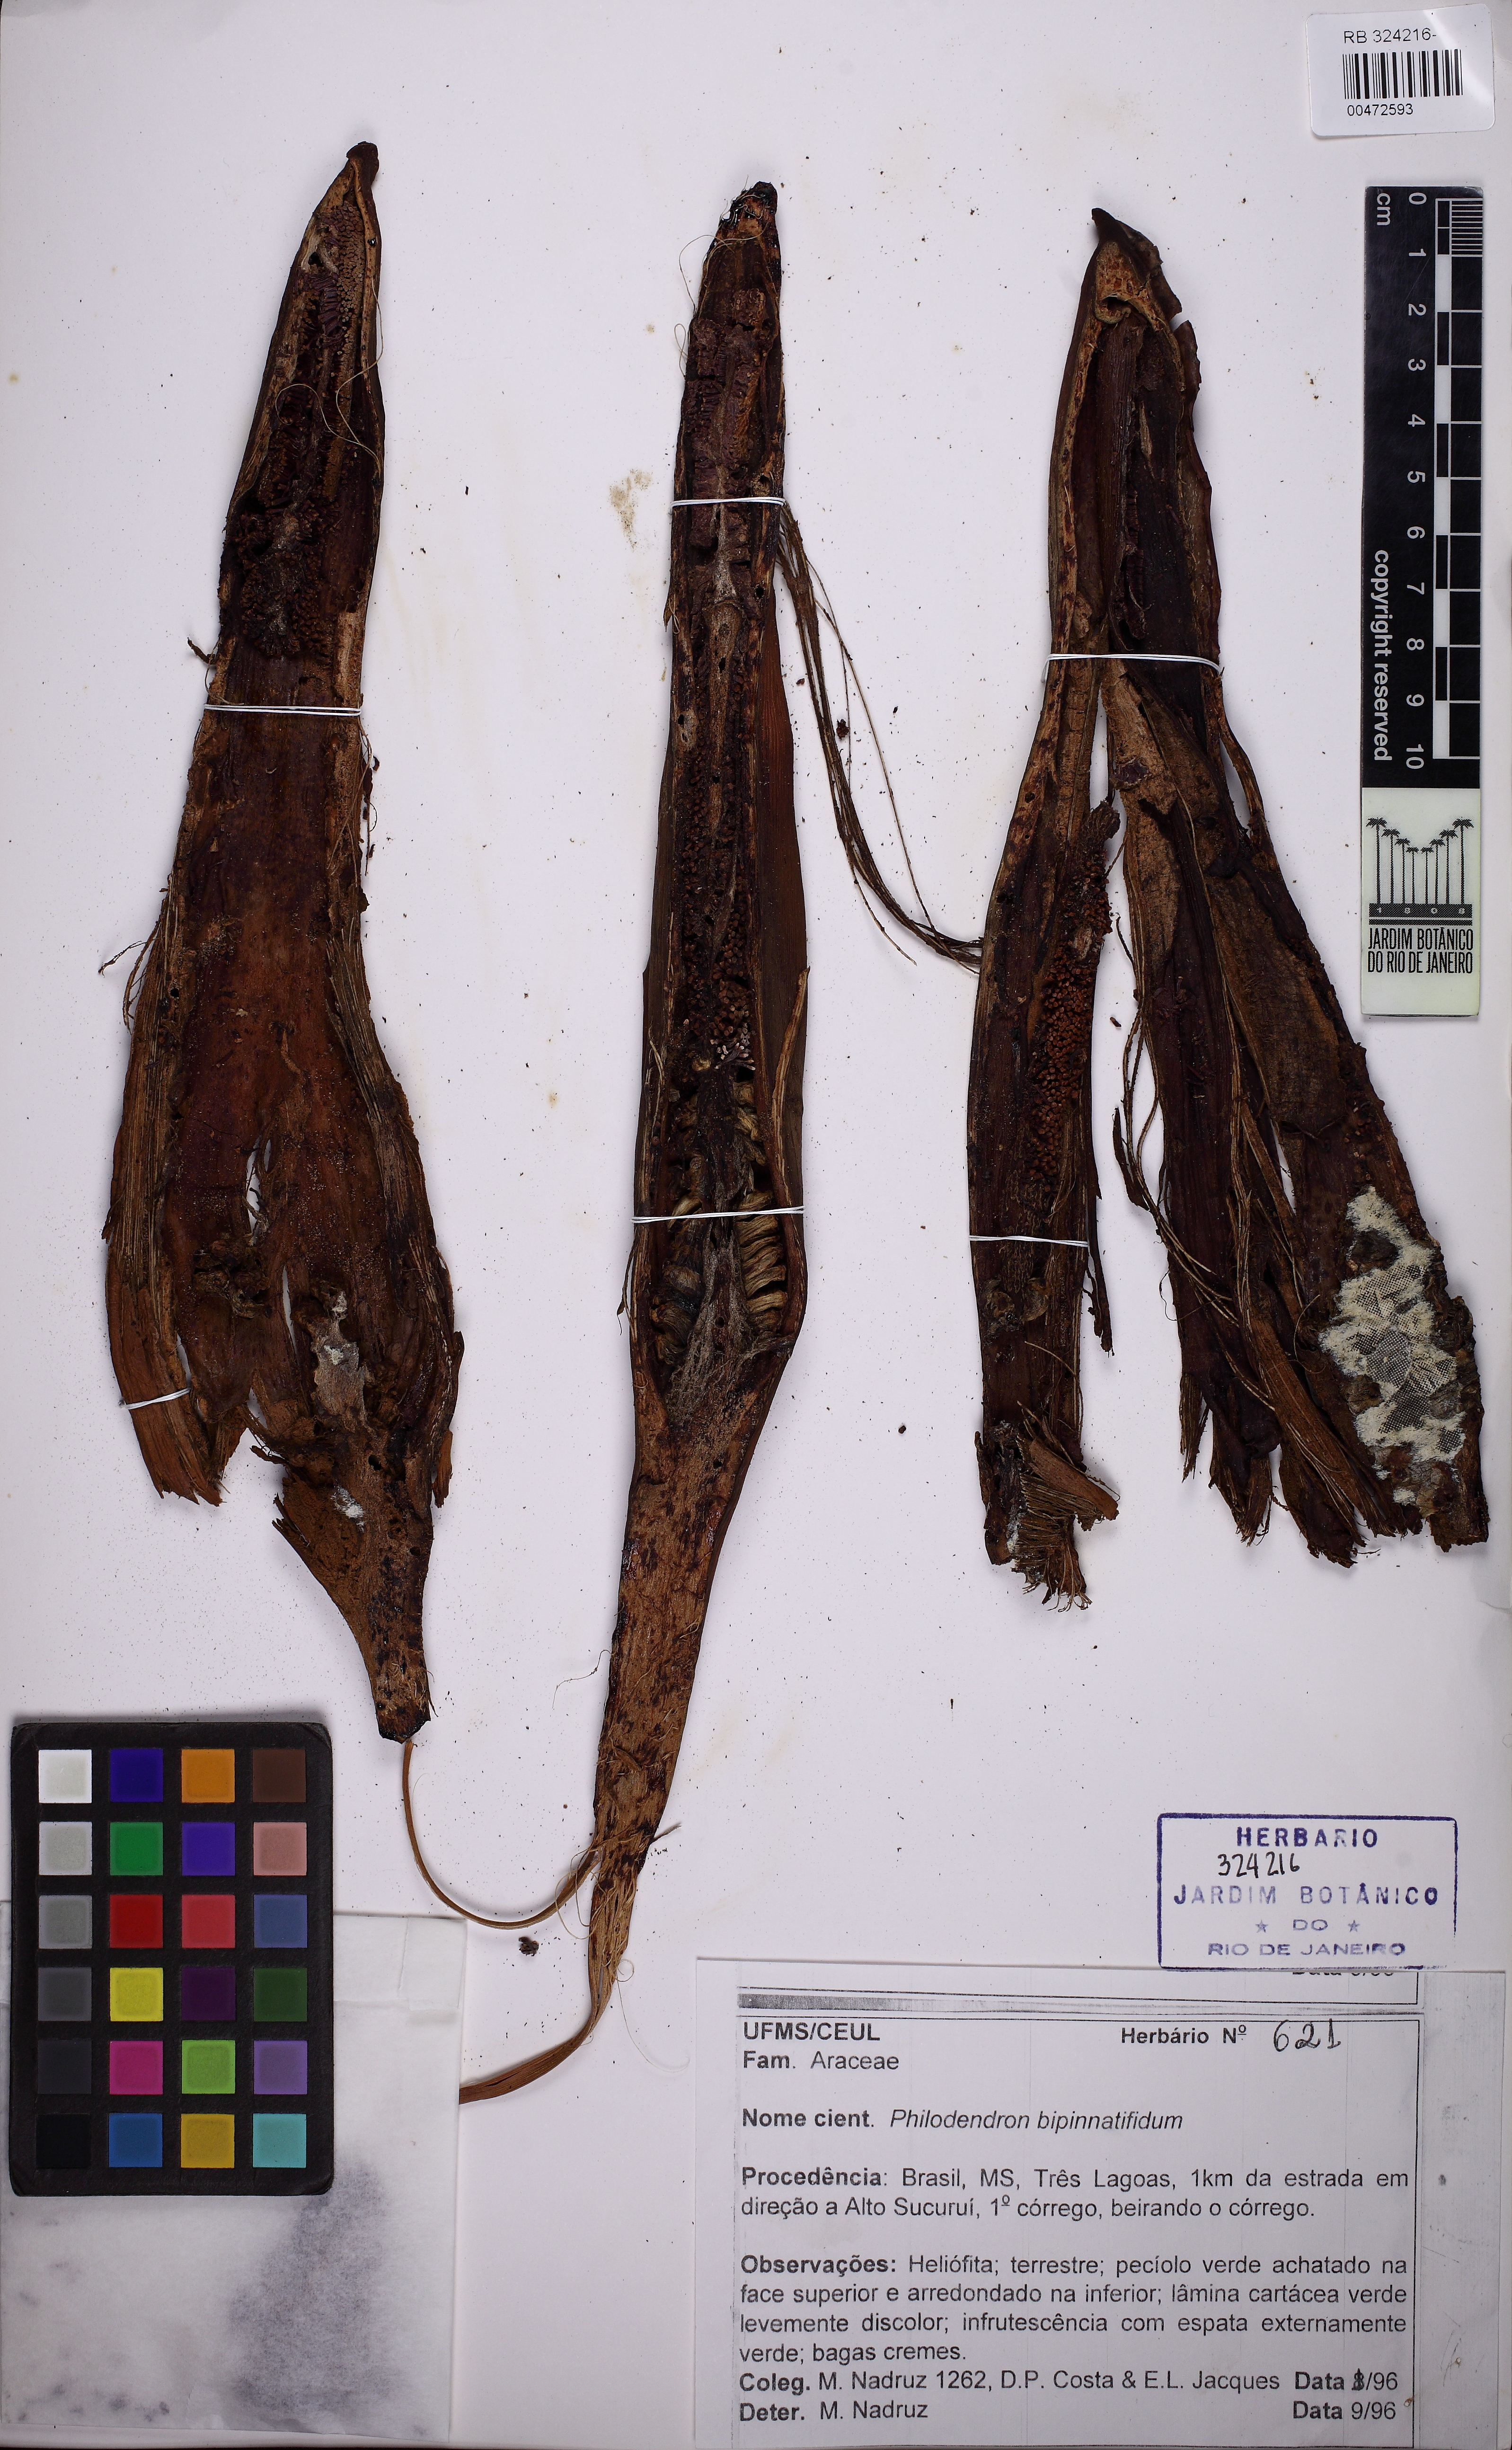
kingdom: Plantae
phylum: Tracheophyta
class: Liliopsida
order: Alismatales
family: Araceae
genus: Thaumatophyllum
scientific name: Thaumatophyllum bipinnatifidum
